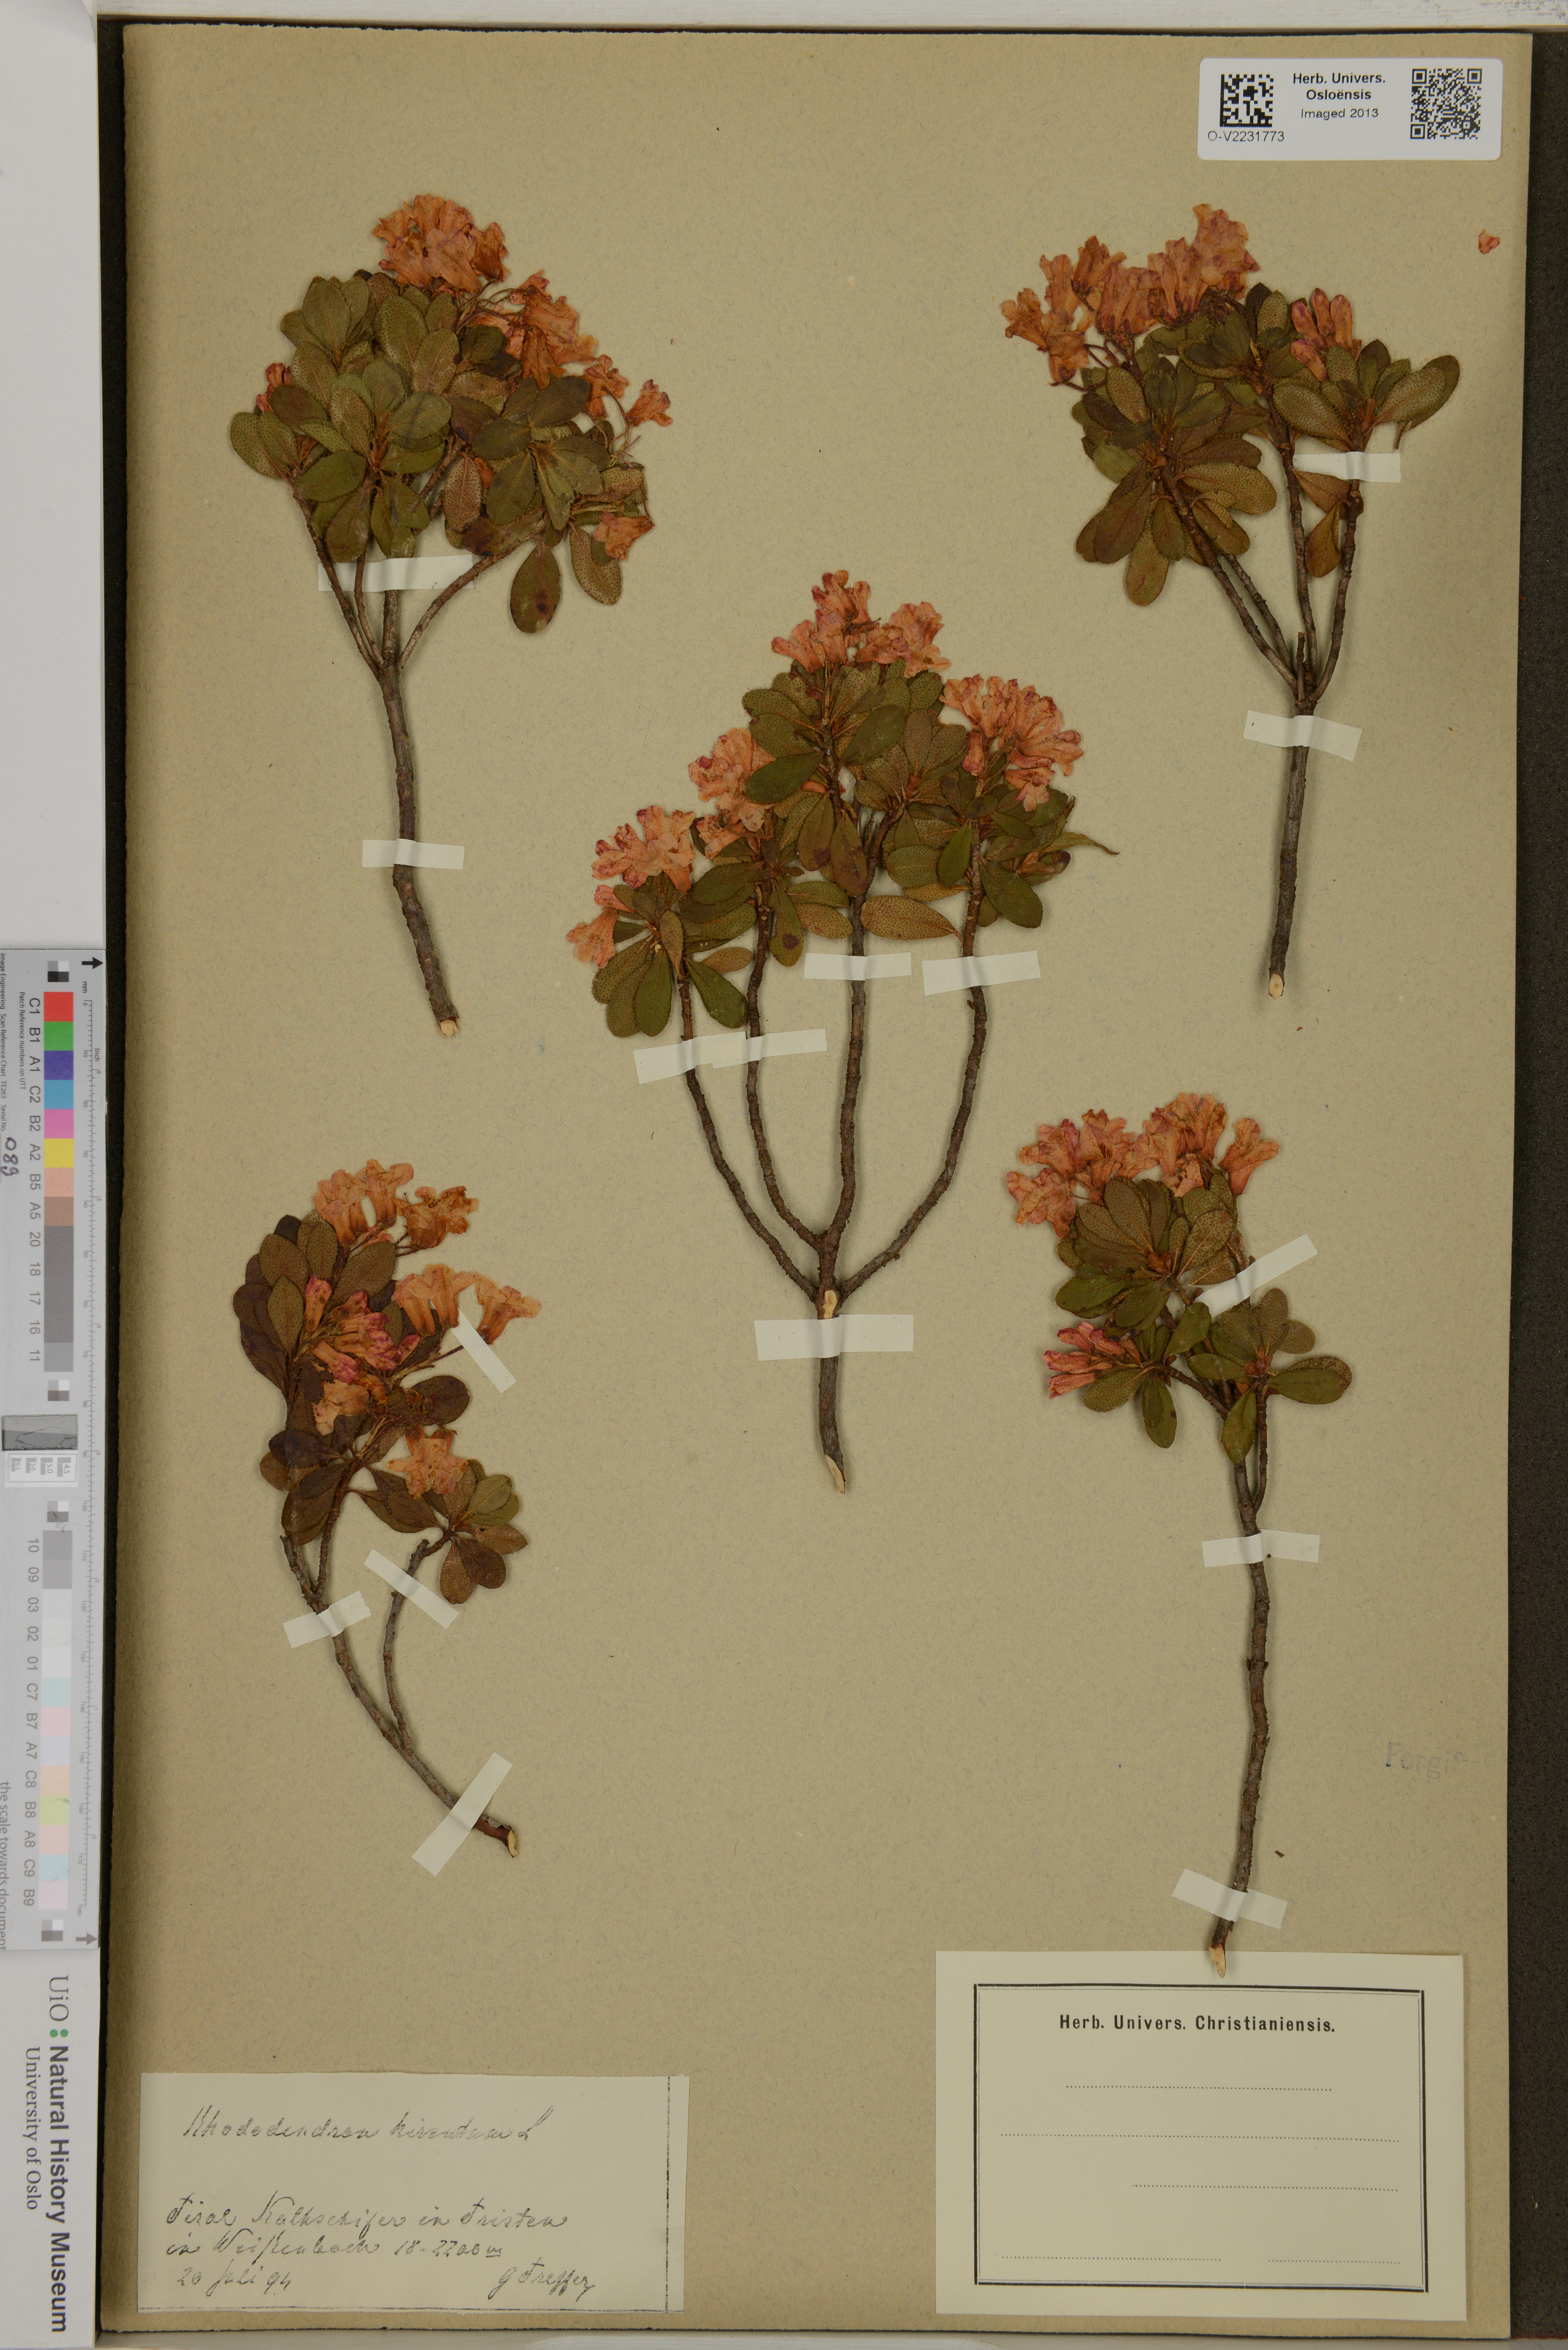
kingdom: Plantae
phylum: Tracheophyta
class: Magnoliopsida
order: Ericales
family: Ericaceae
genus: Rhododendron
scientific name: Rhododendron hirsutum
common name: Hairy alpenrose
